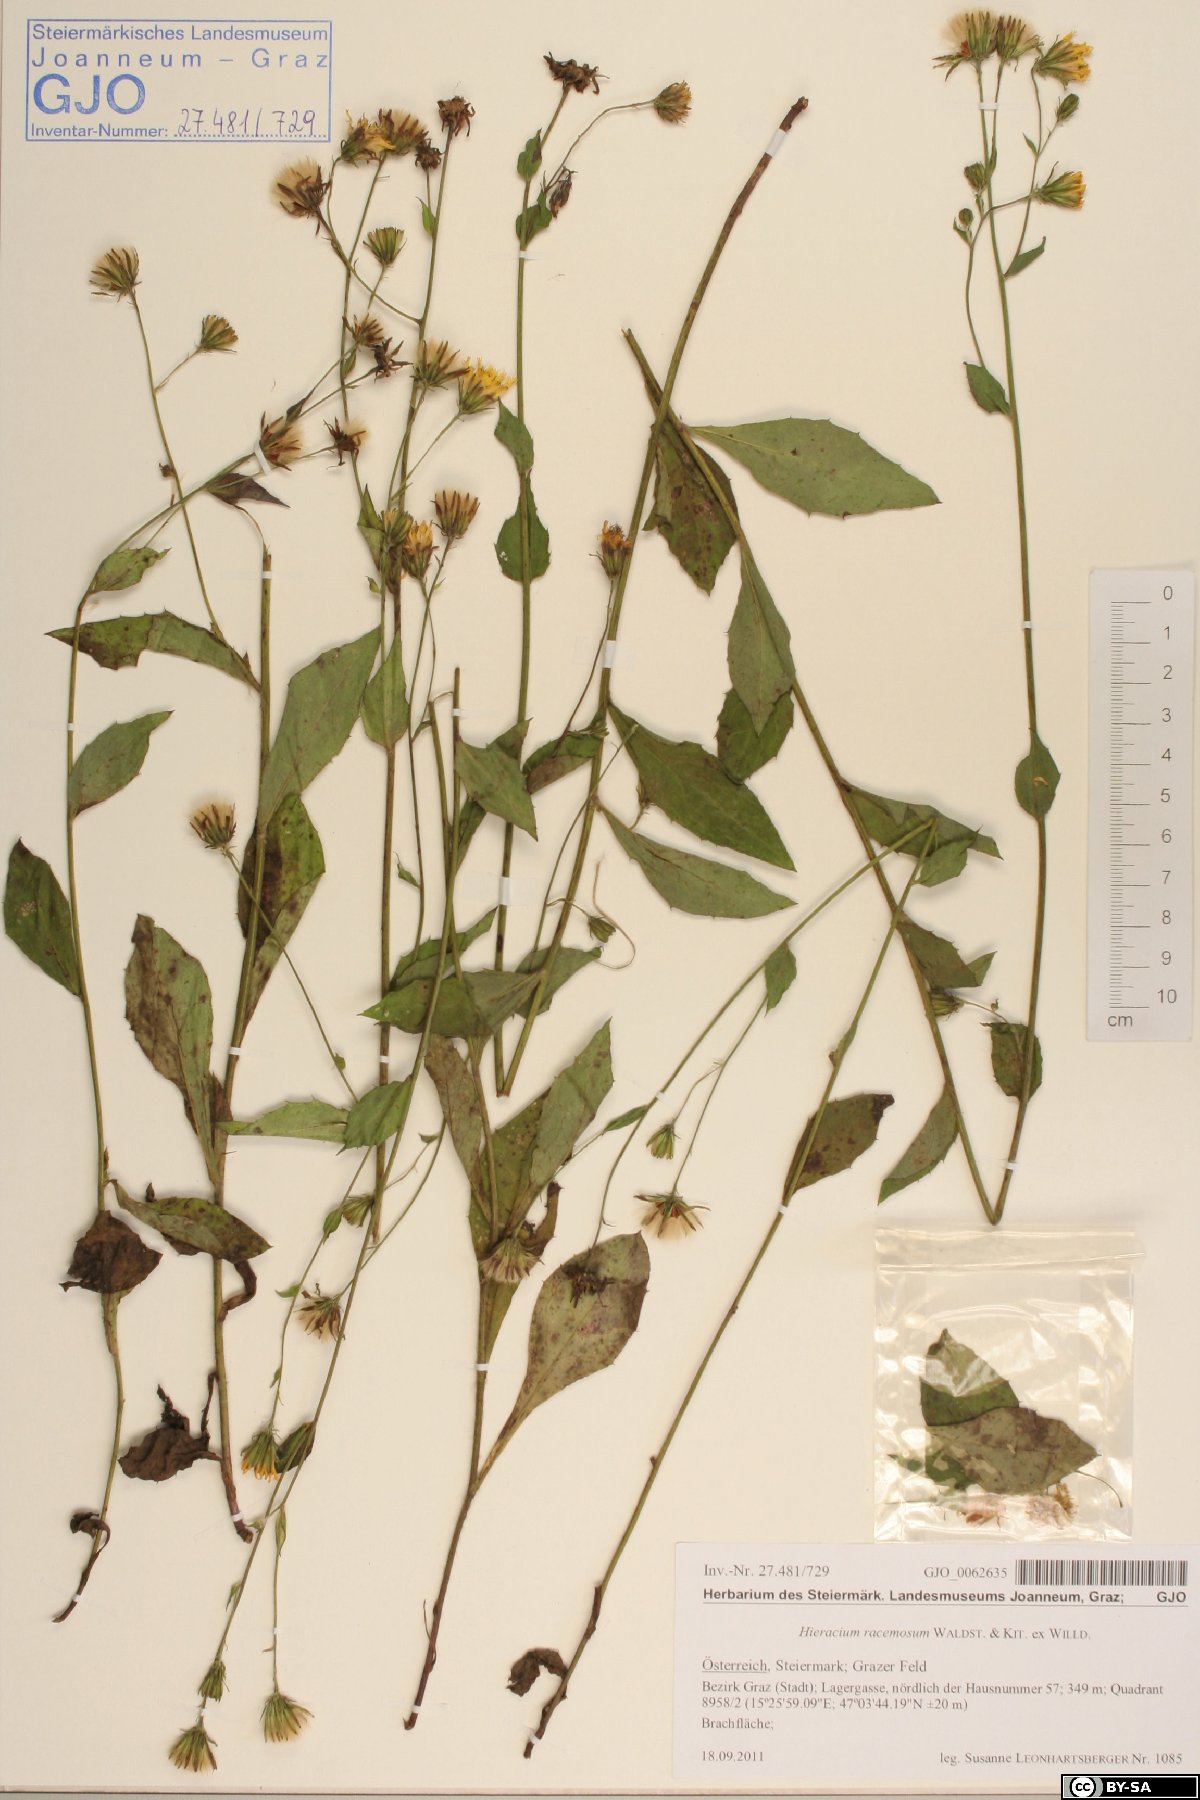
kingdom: Plantae
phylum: Tracheophyta
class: Magnoliopsida
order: Asterales
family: Asteraceae
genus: Hieracium
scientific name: Hieracium racemosum
